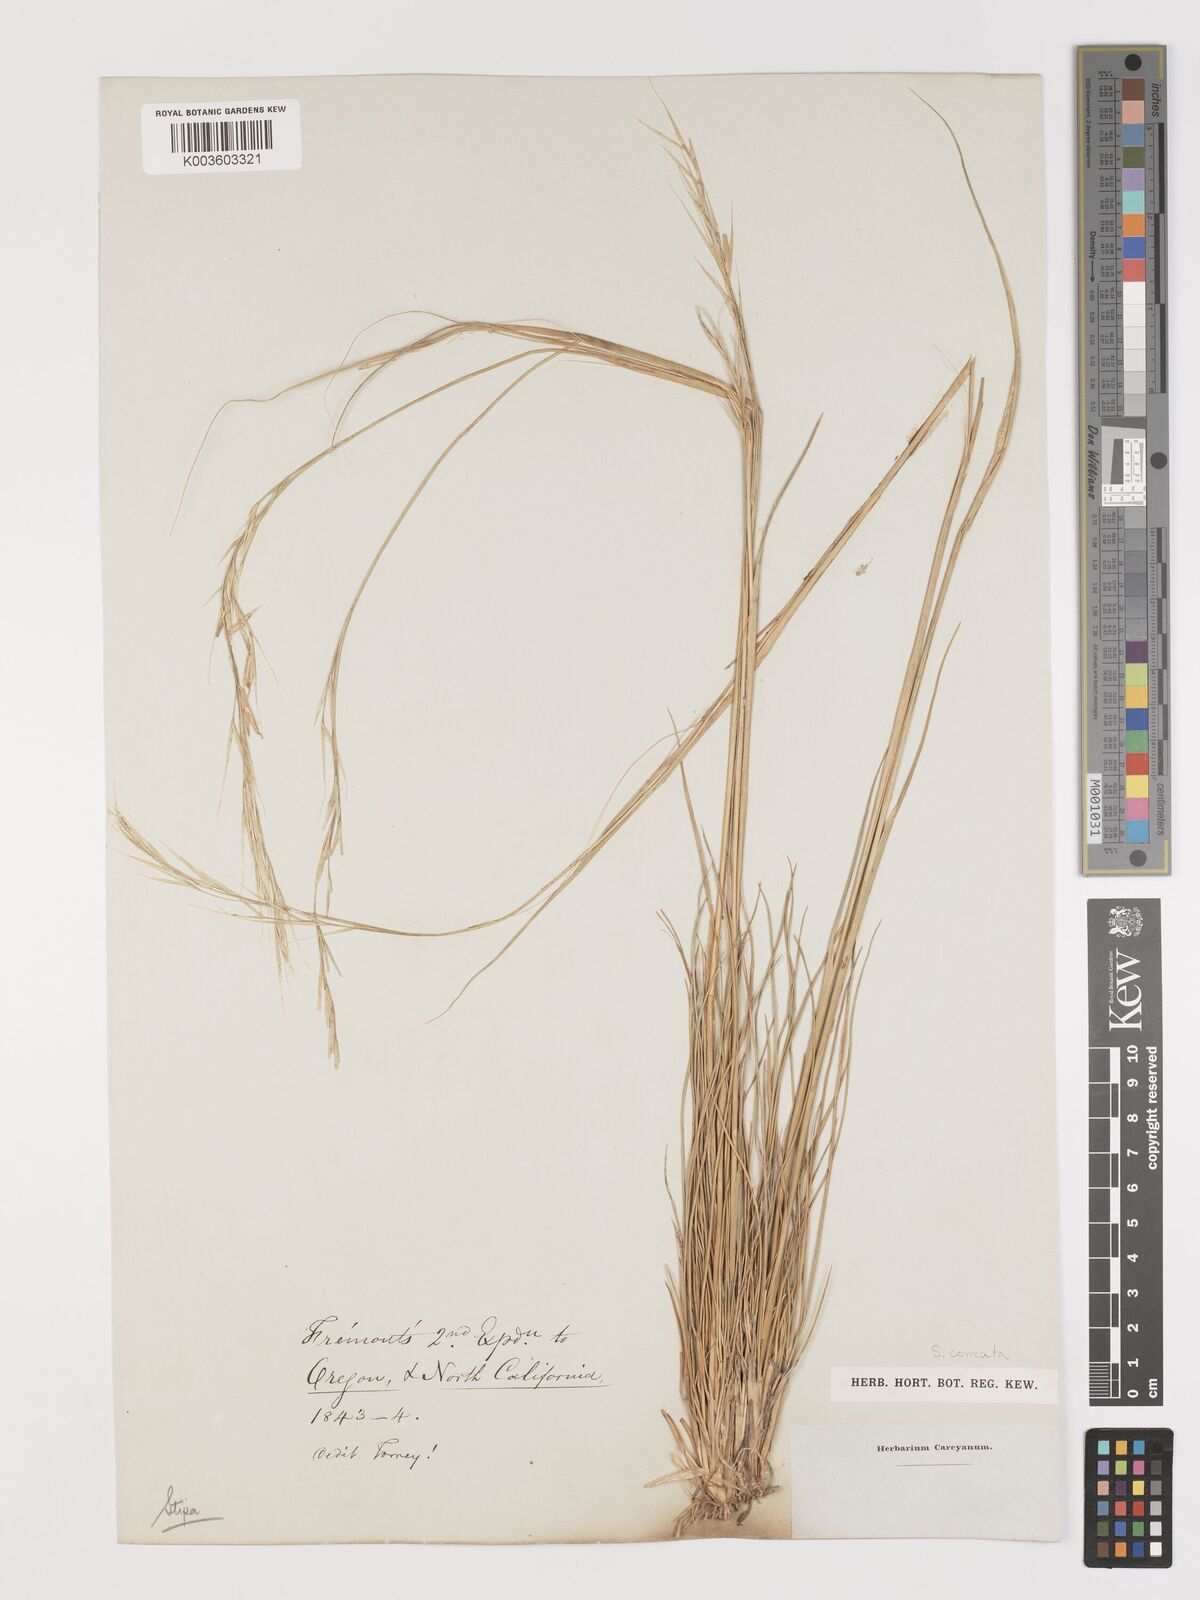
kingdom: Plantae
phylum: Tracheophyta
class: Liliopsida
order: Poales
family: Poaceae
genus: Hesperostipa
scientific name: Hesperostipa comata
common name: Needle-and-thread grass
